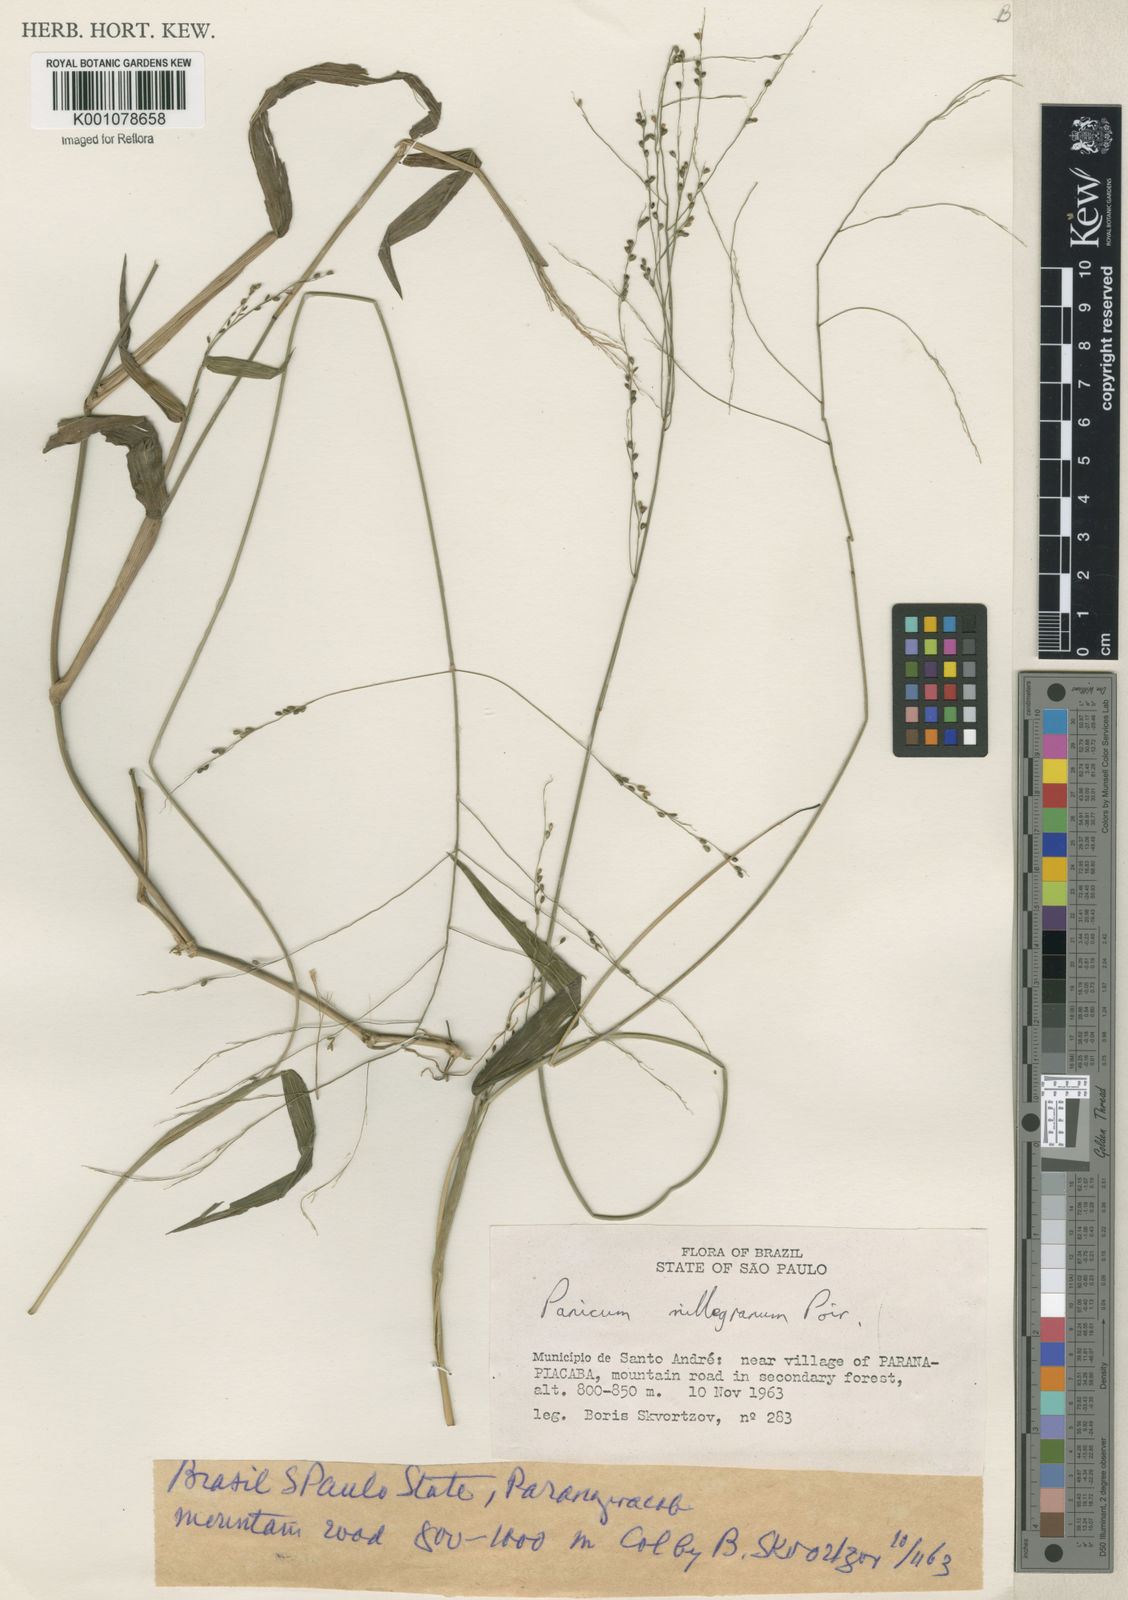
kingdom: Plantae
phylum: Tracheophyta
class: Liliopsida
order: Poales
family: Poaceae
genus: Panicum
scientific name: Panicum millegrana
